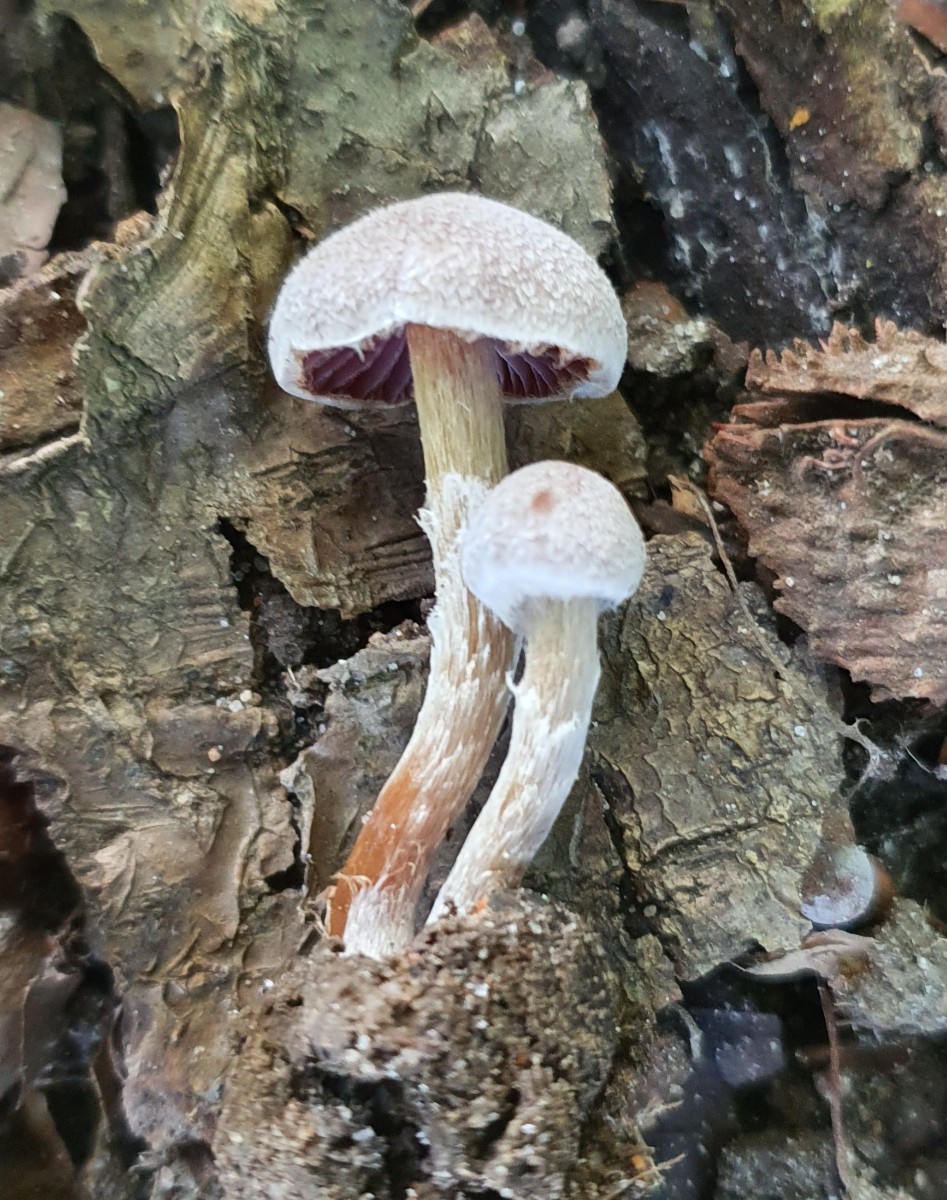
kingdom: Fungi
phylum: Basidiomycota
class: Agaricomycetes
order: Agaricales
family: Cortinariaceae
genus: Cortinarius
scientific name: Cortinarius geraniolens
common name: geranium-slørhat
